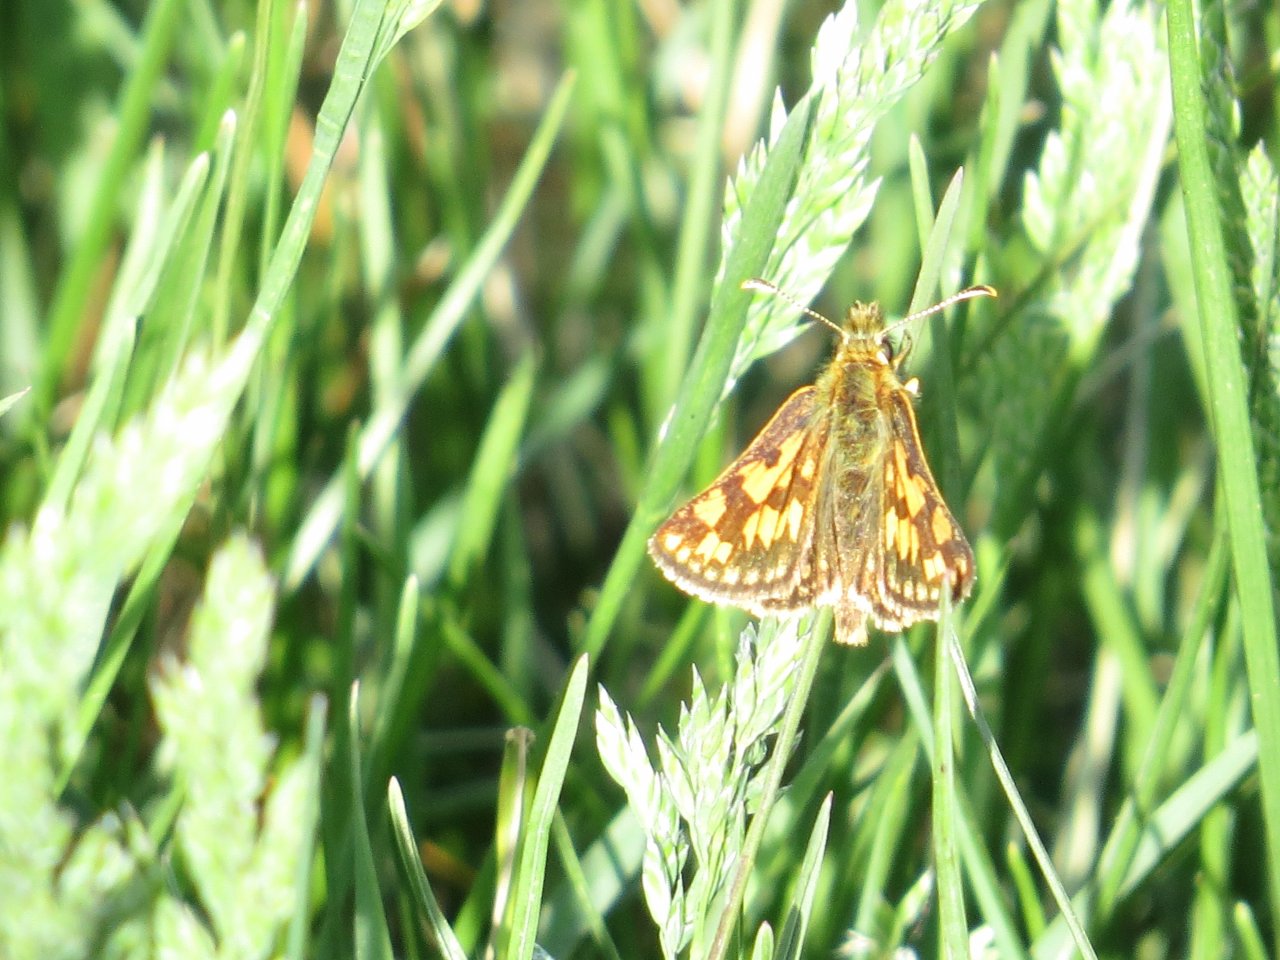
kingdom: Animalia
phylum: Arthropoda
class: Insecta
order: Lepidoptera
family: Hesperiidae
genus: Carterocephalus
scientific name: Carterocephalus palaemon
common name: Chequered Skipper
